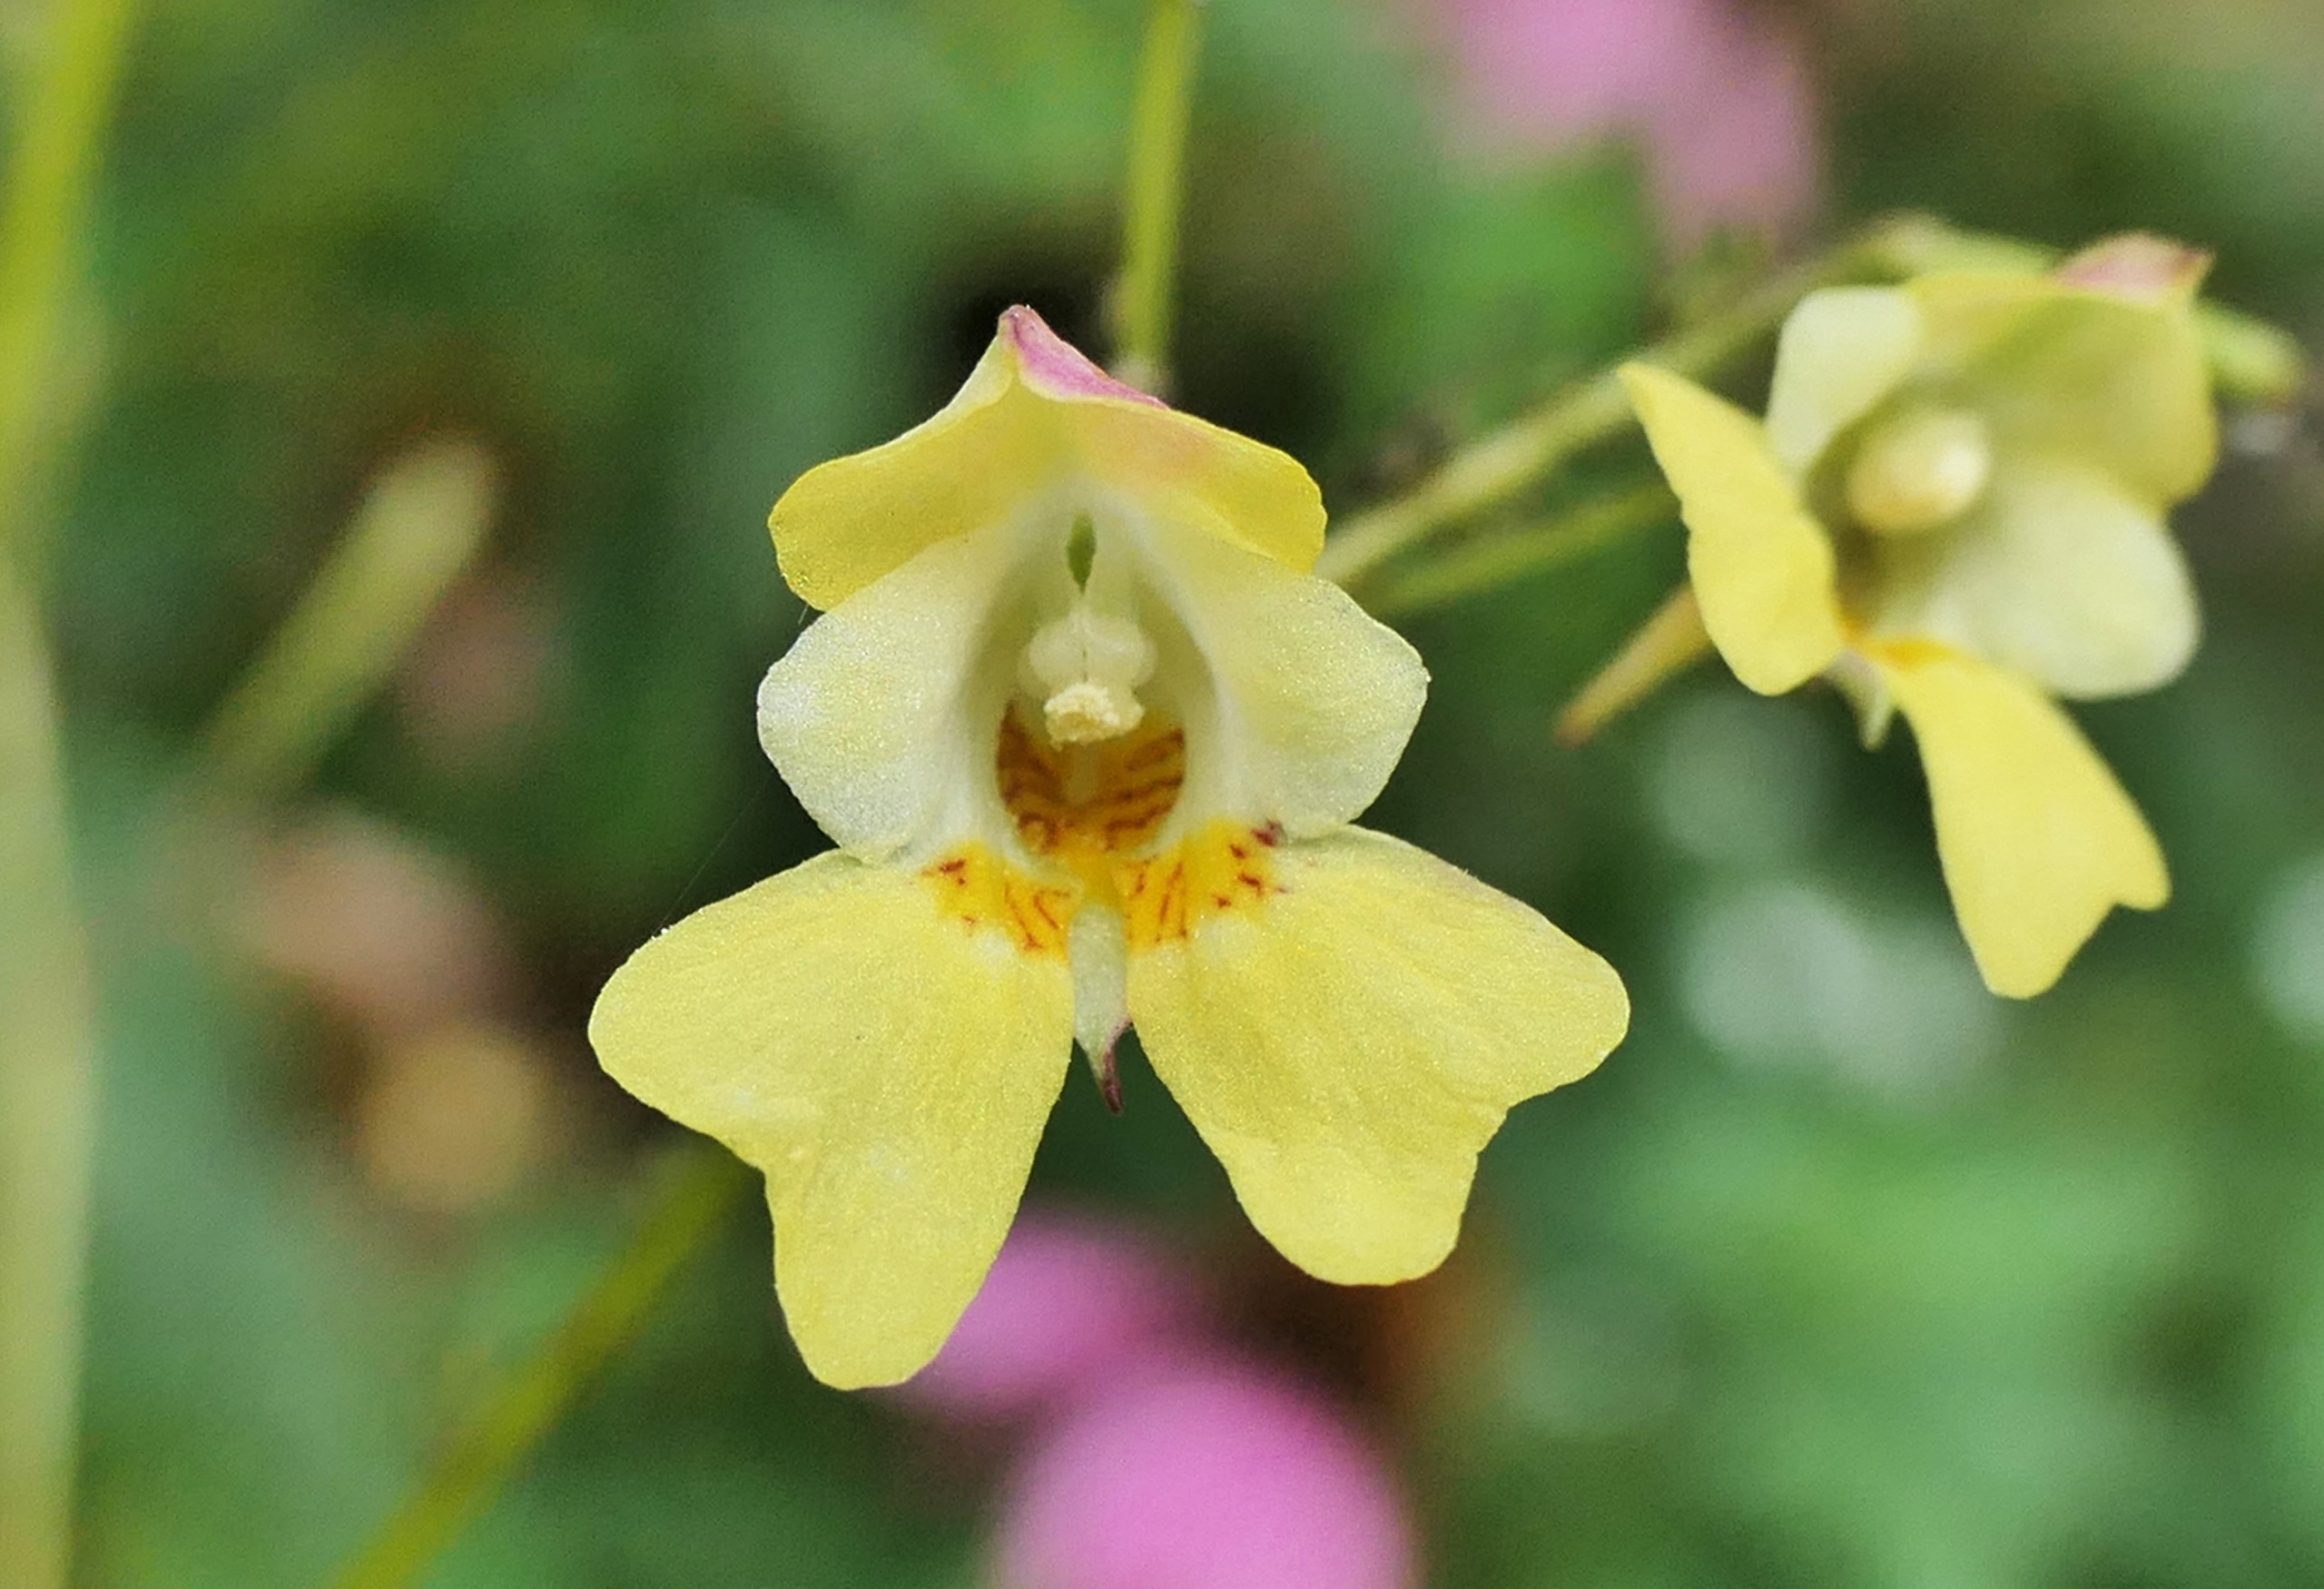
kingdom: Plantae
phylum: Tracheophyta
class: Magnoliopsida
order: Ericales
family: Balsaminaceae
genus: Impatiens
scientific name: Impatiens parviflora
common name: Småblomstret balsamin
